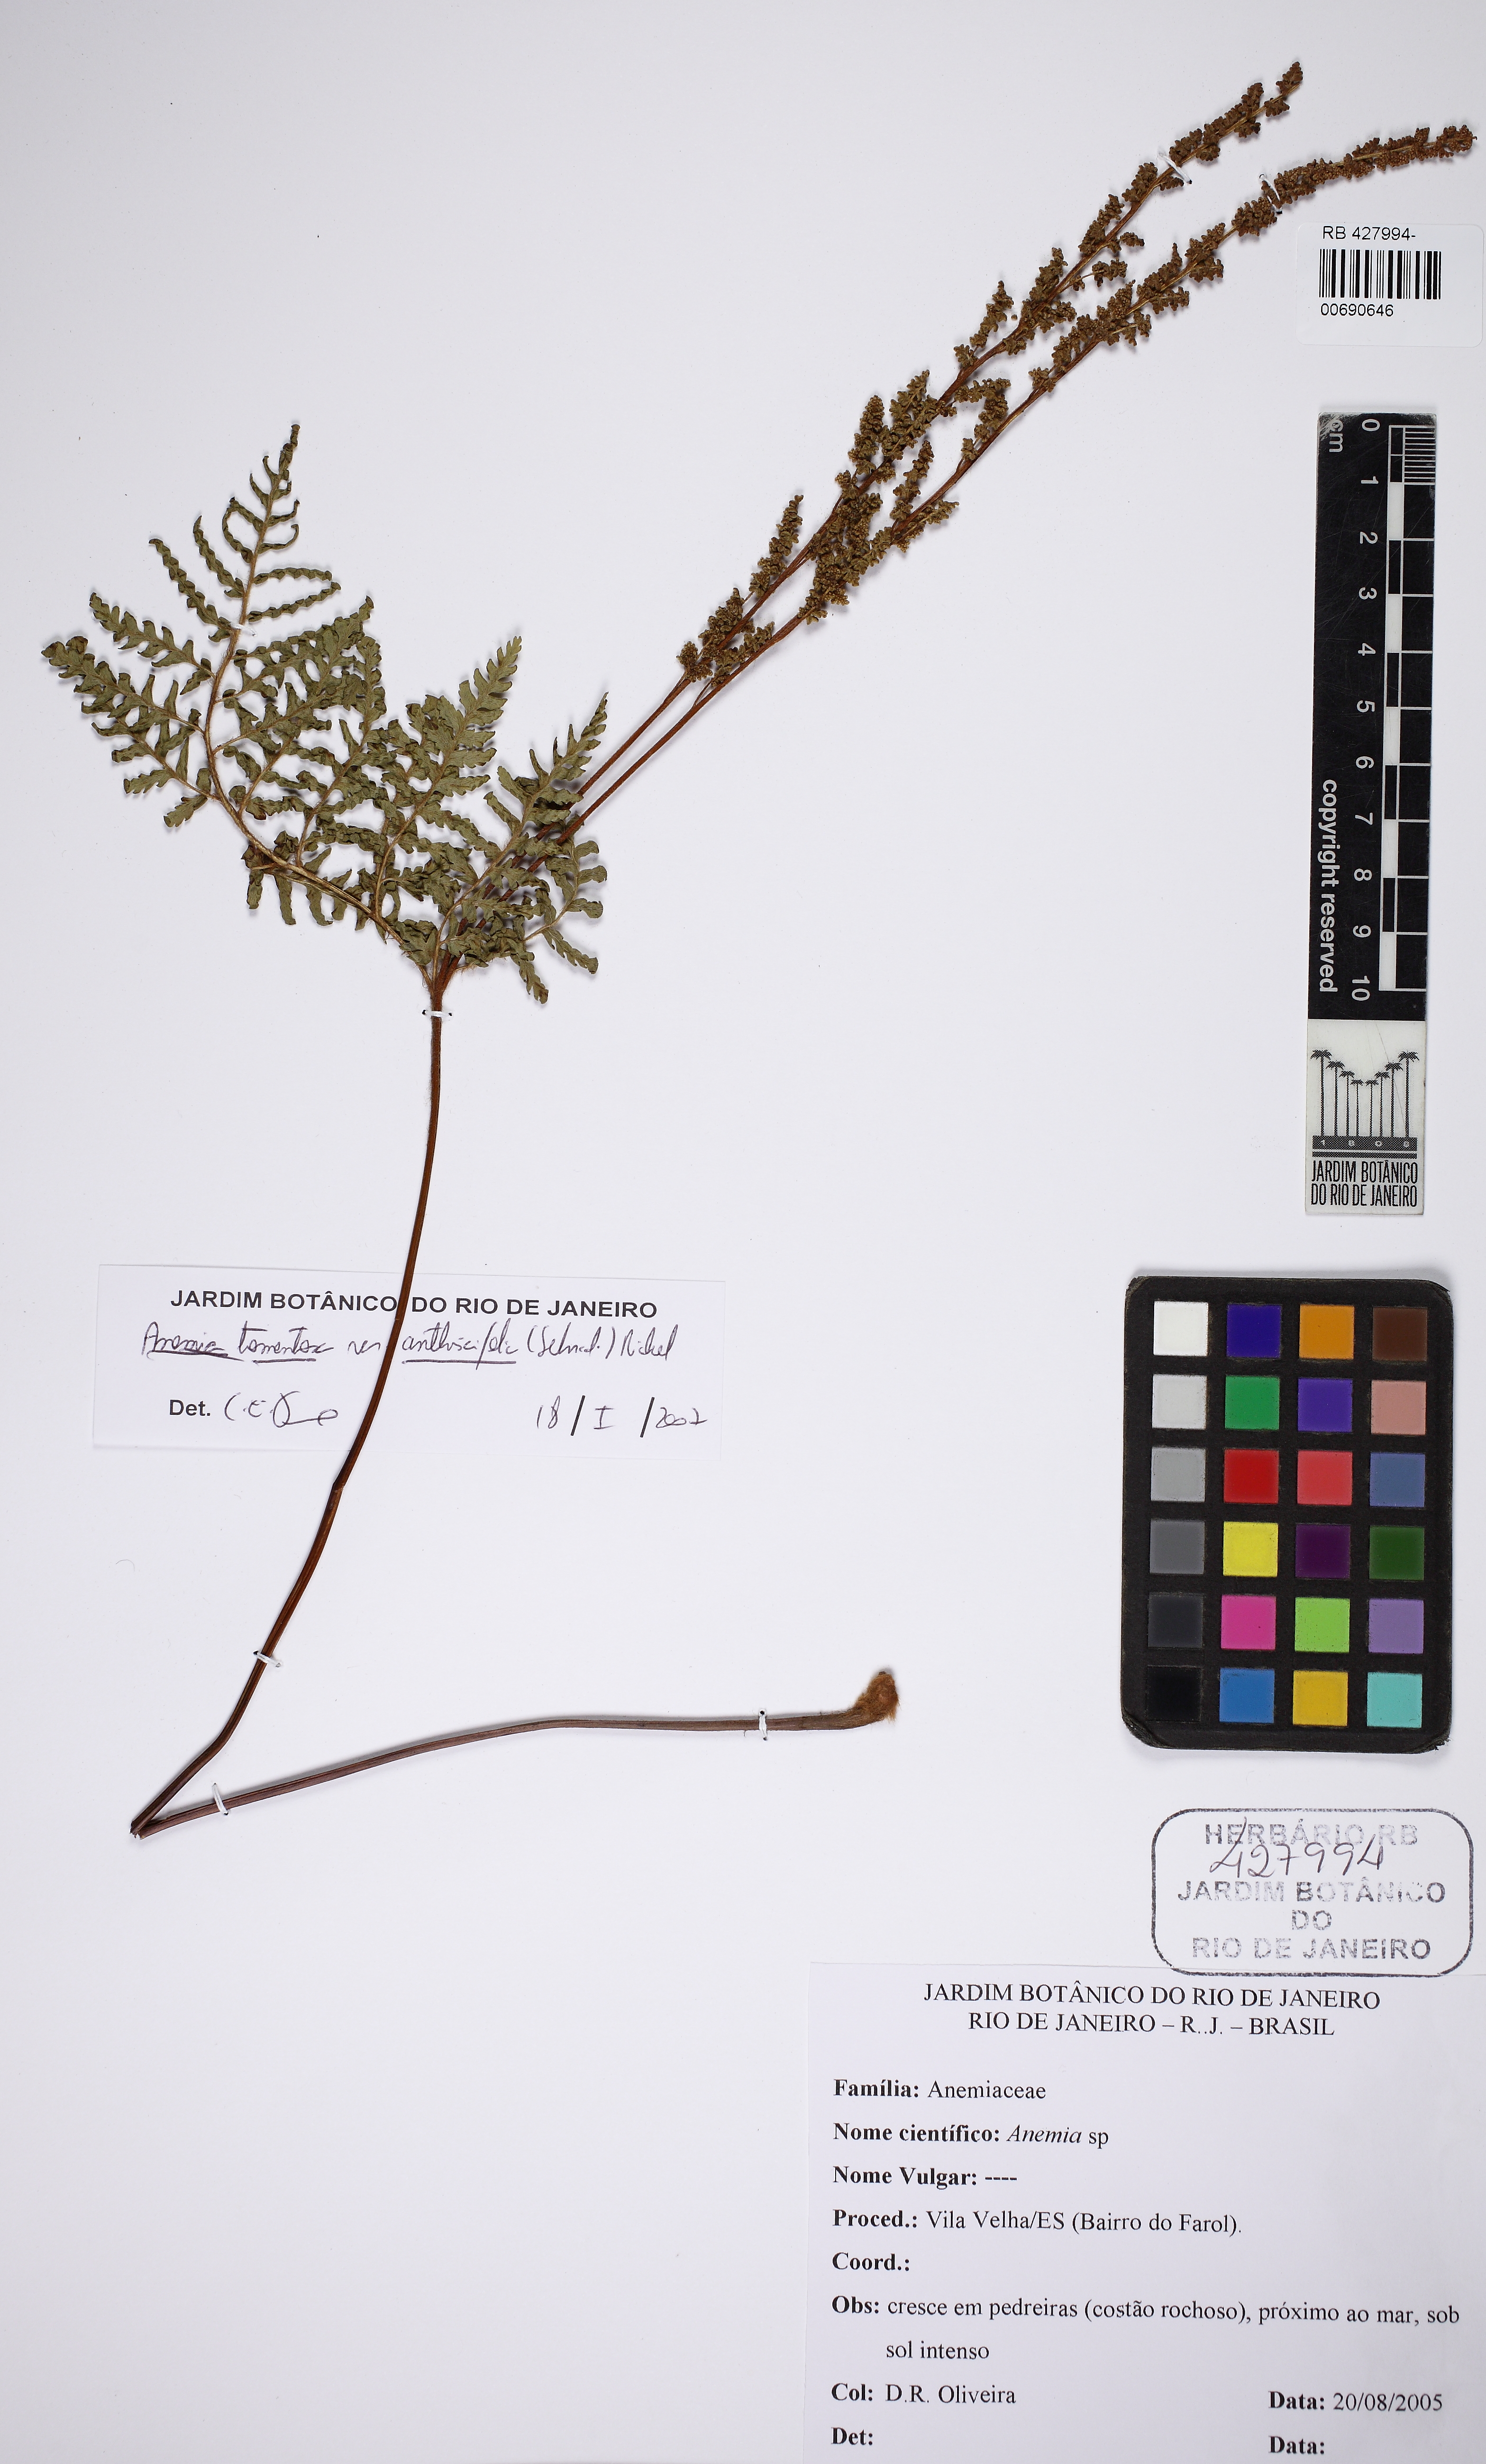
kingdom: Plantae
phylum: Tracheophyta
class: Polypodiopsida
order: Schizaeales
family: Anemiaceae
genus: Anemia
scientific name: Anemia tomentosa
